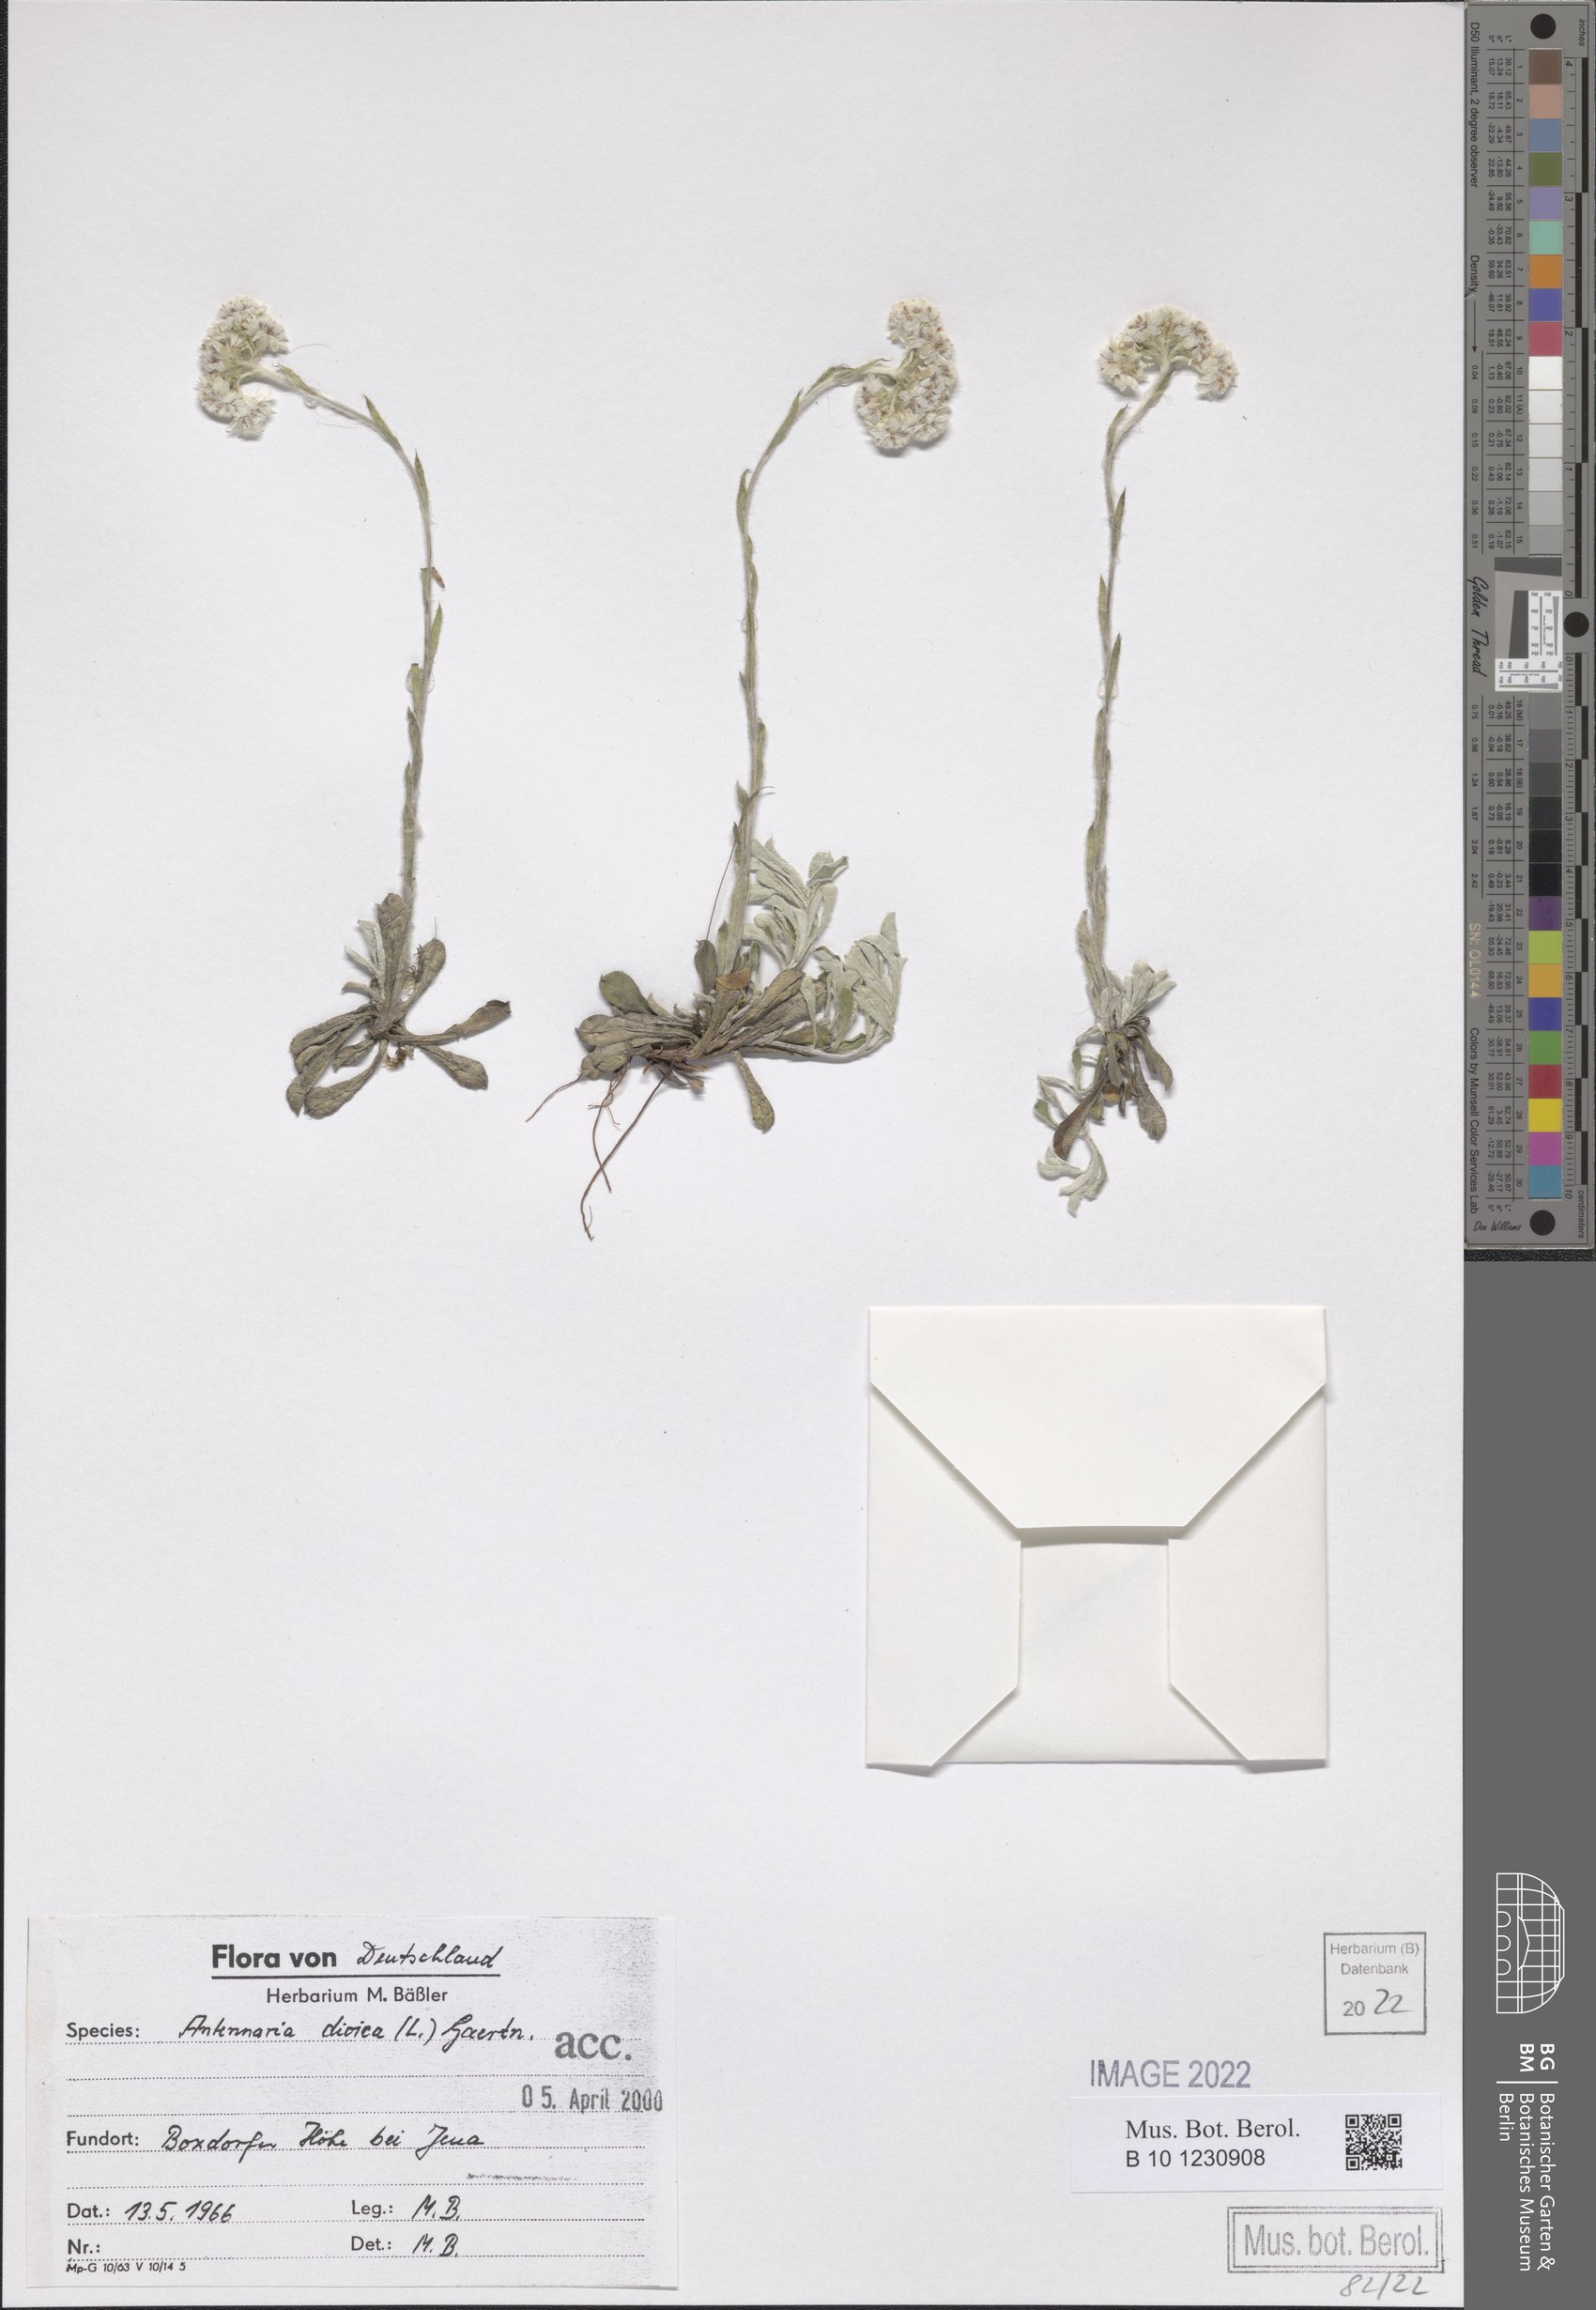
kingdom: Plantae
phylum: Tracheophyta
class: Magnoliopsida
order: Asterales
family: Asteraceae
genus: Antennaria
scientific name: Antennaria dioica
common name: Mountain everlasting
